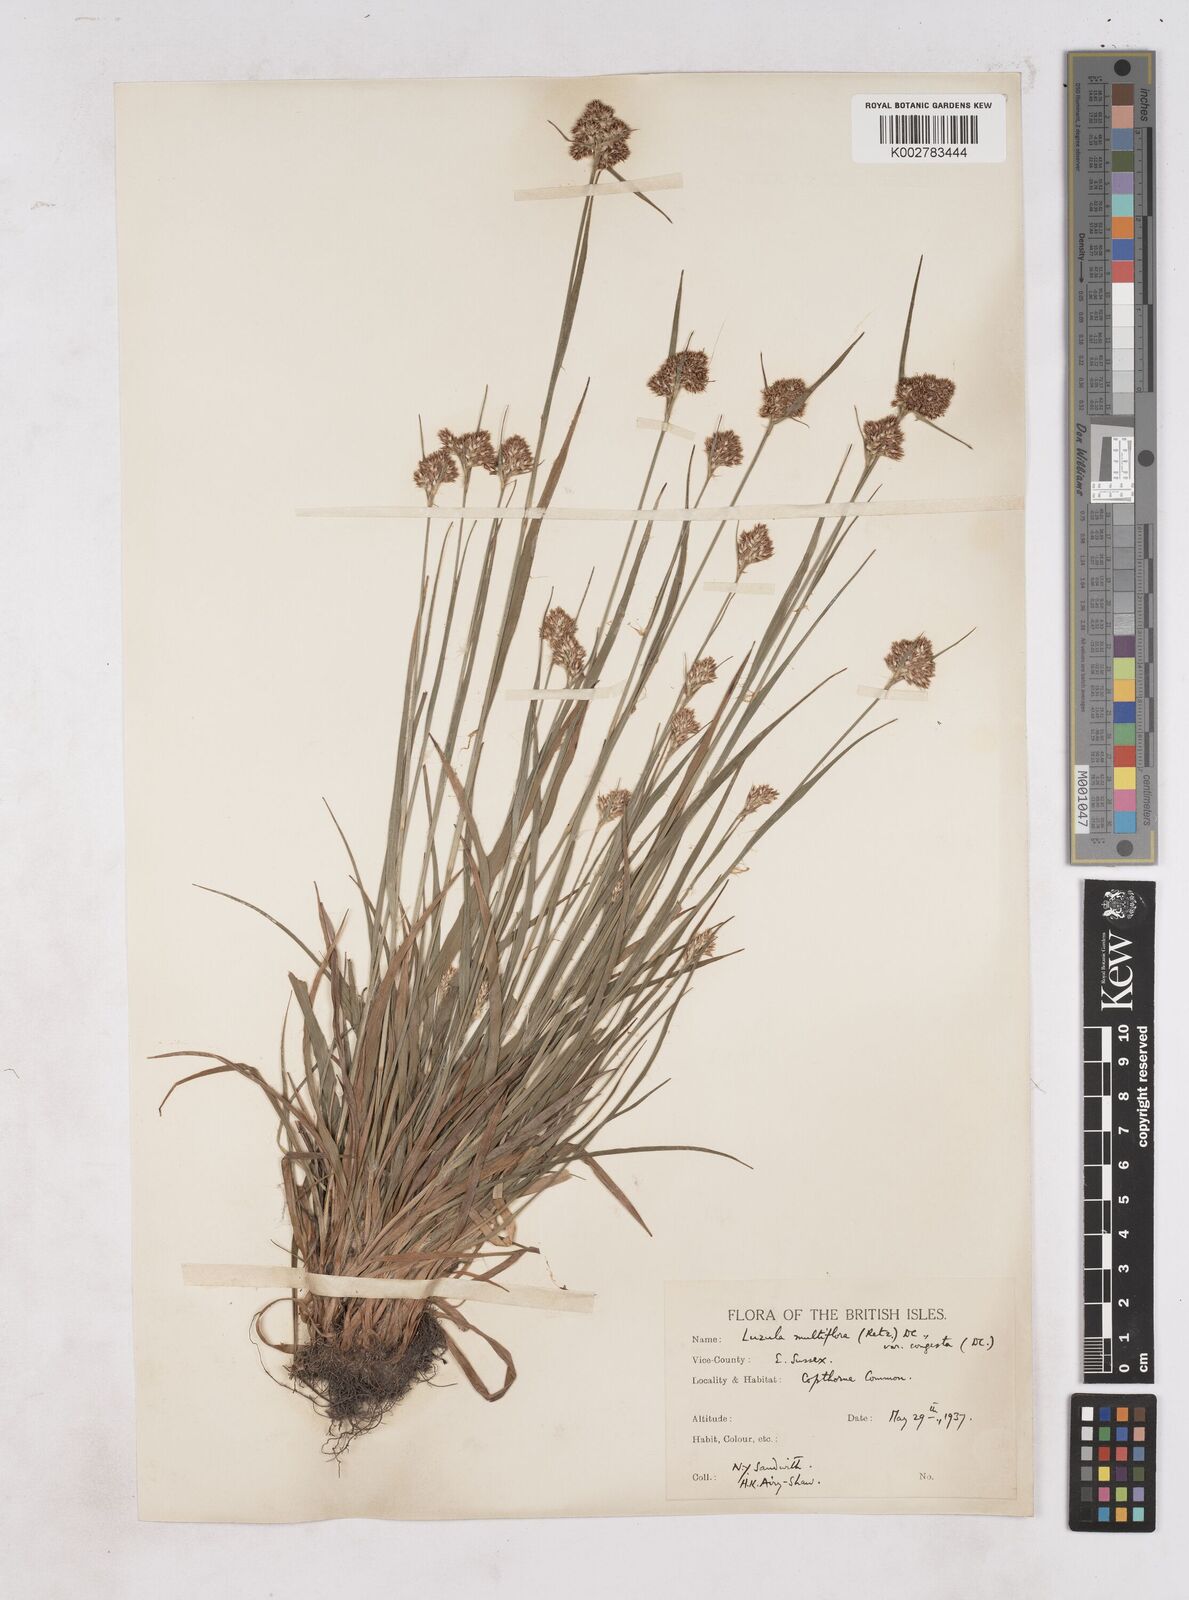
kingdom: Plantae
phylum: Tracheophyta
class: Liliopsida
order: Poales
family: Juncaceae
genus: Luzula
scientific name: Luzula campestris
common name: Field wood-rush
